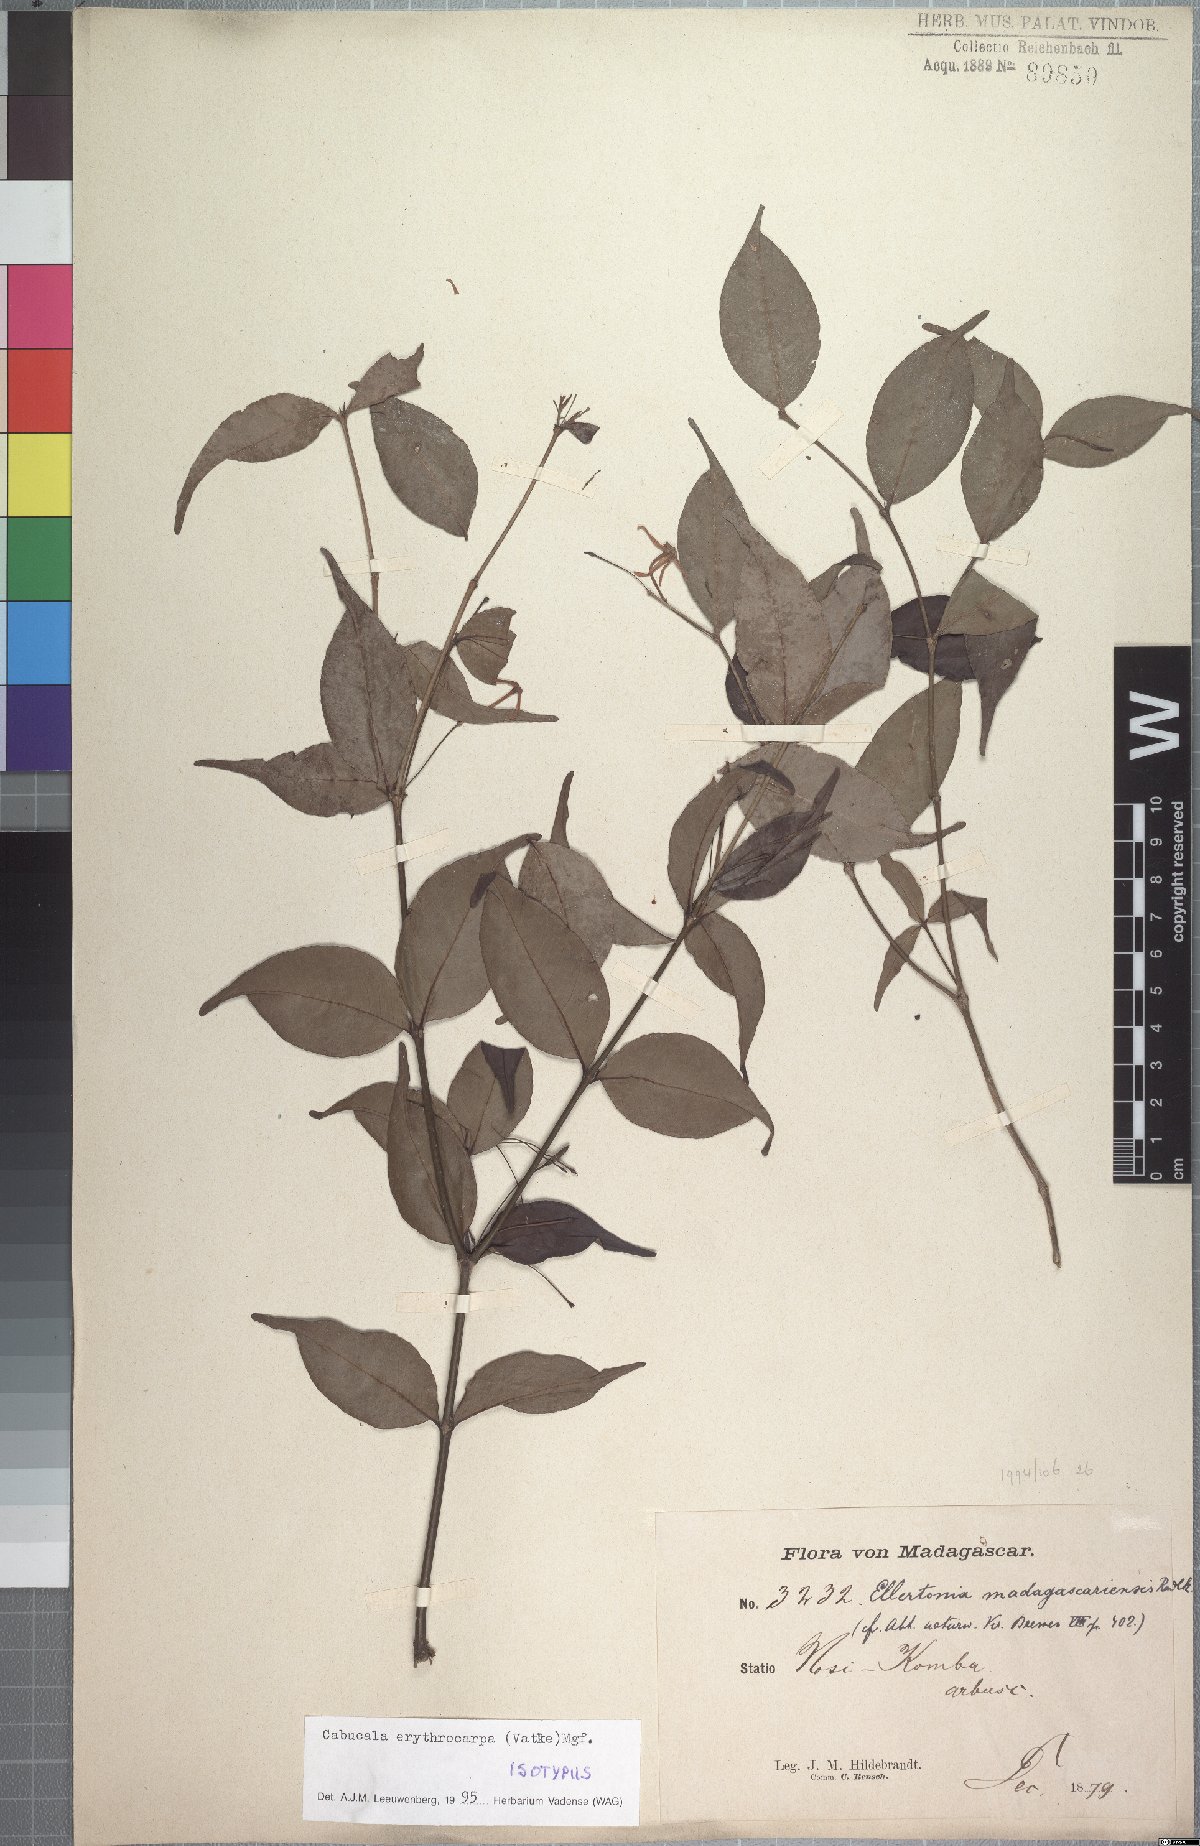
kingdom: Plantae
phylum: Tracheophyta
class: Magnoliopsida
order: Gentianales
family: Apocynaceae
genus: Petchia
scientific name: Petchia erythrocarpa
